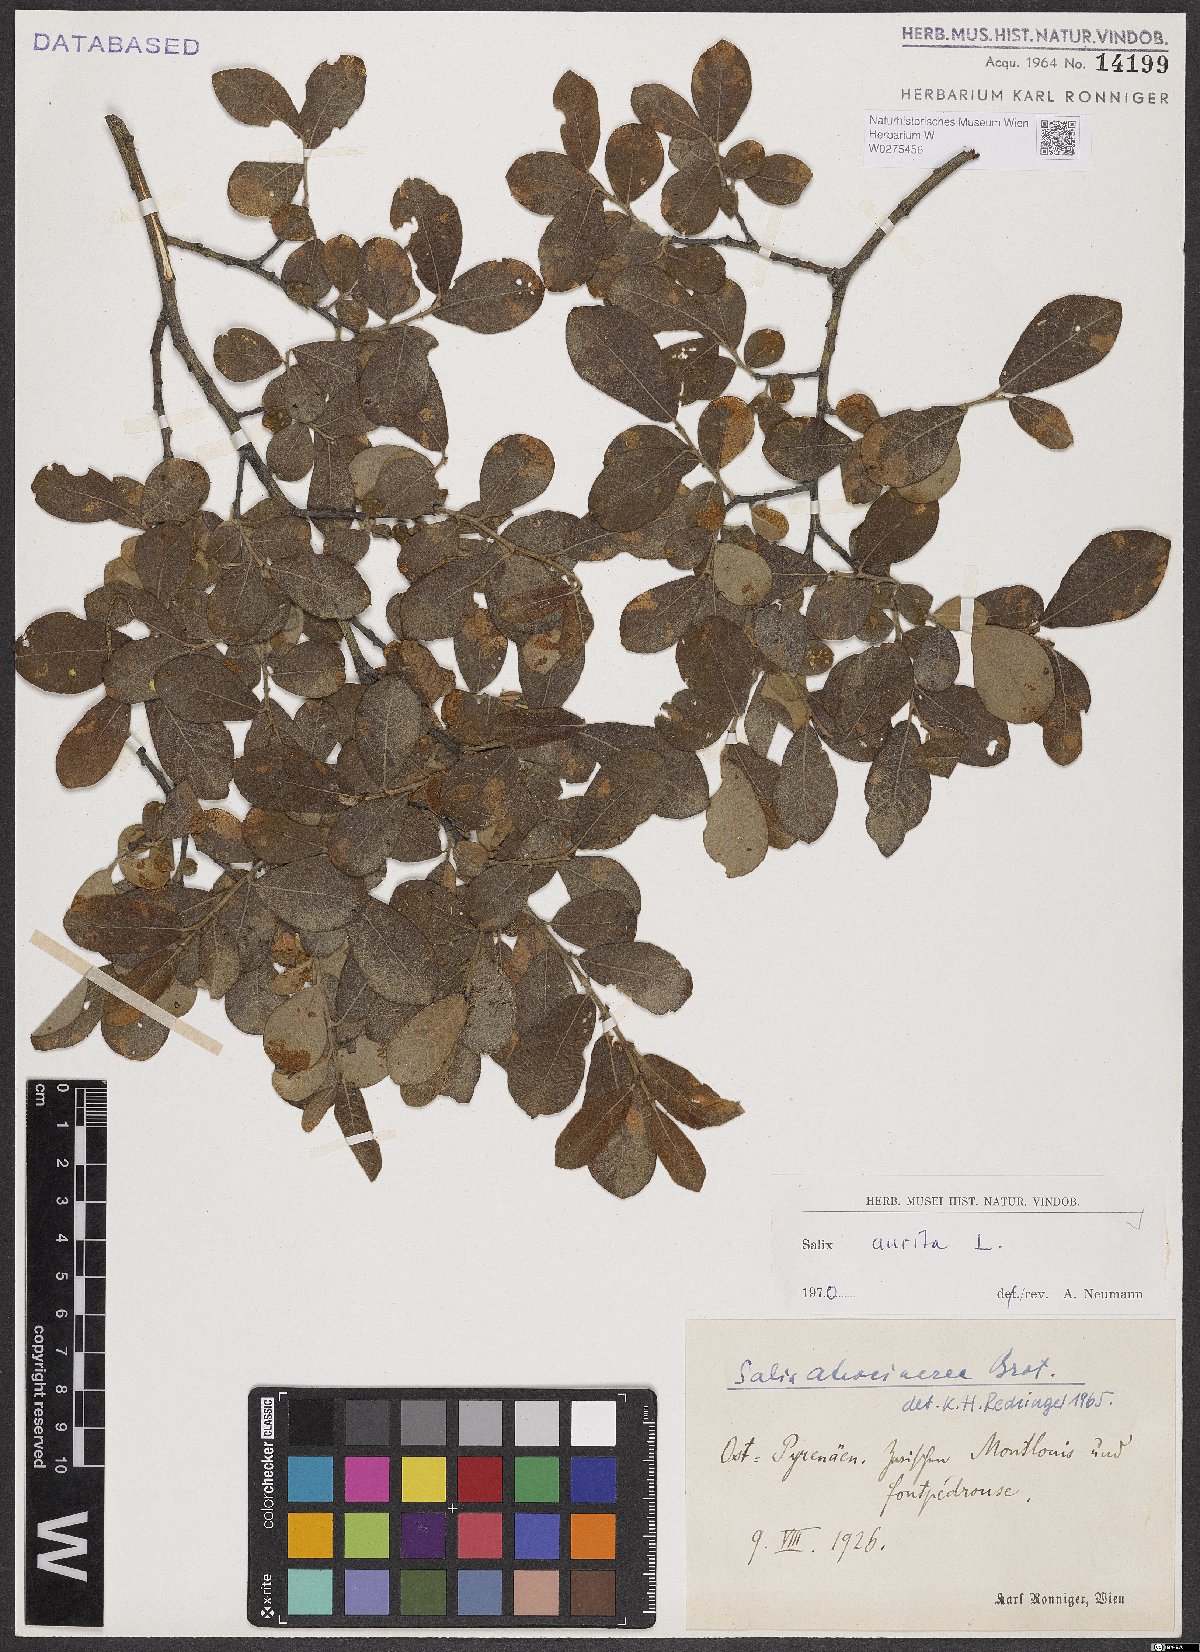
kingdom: Plantae
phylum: Tracheophyta
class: Magnoliopsida
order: Malpighiales
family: Salicaceae
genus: Salix
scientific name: Salix aurita
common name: Eared willow
